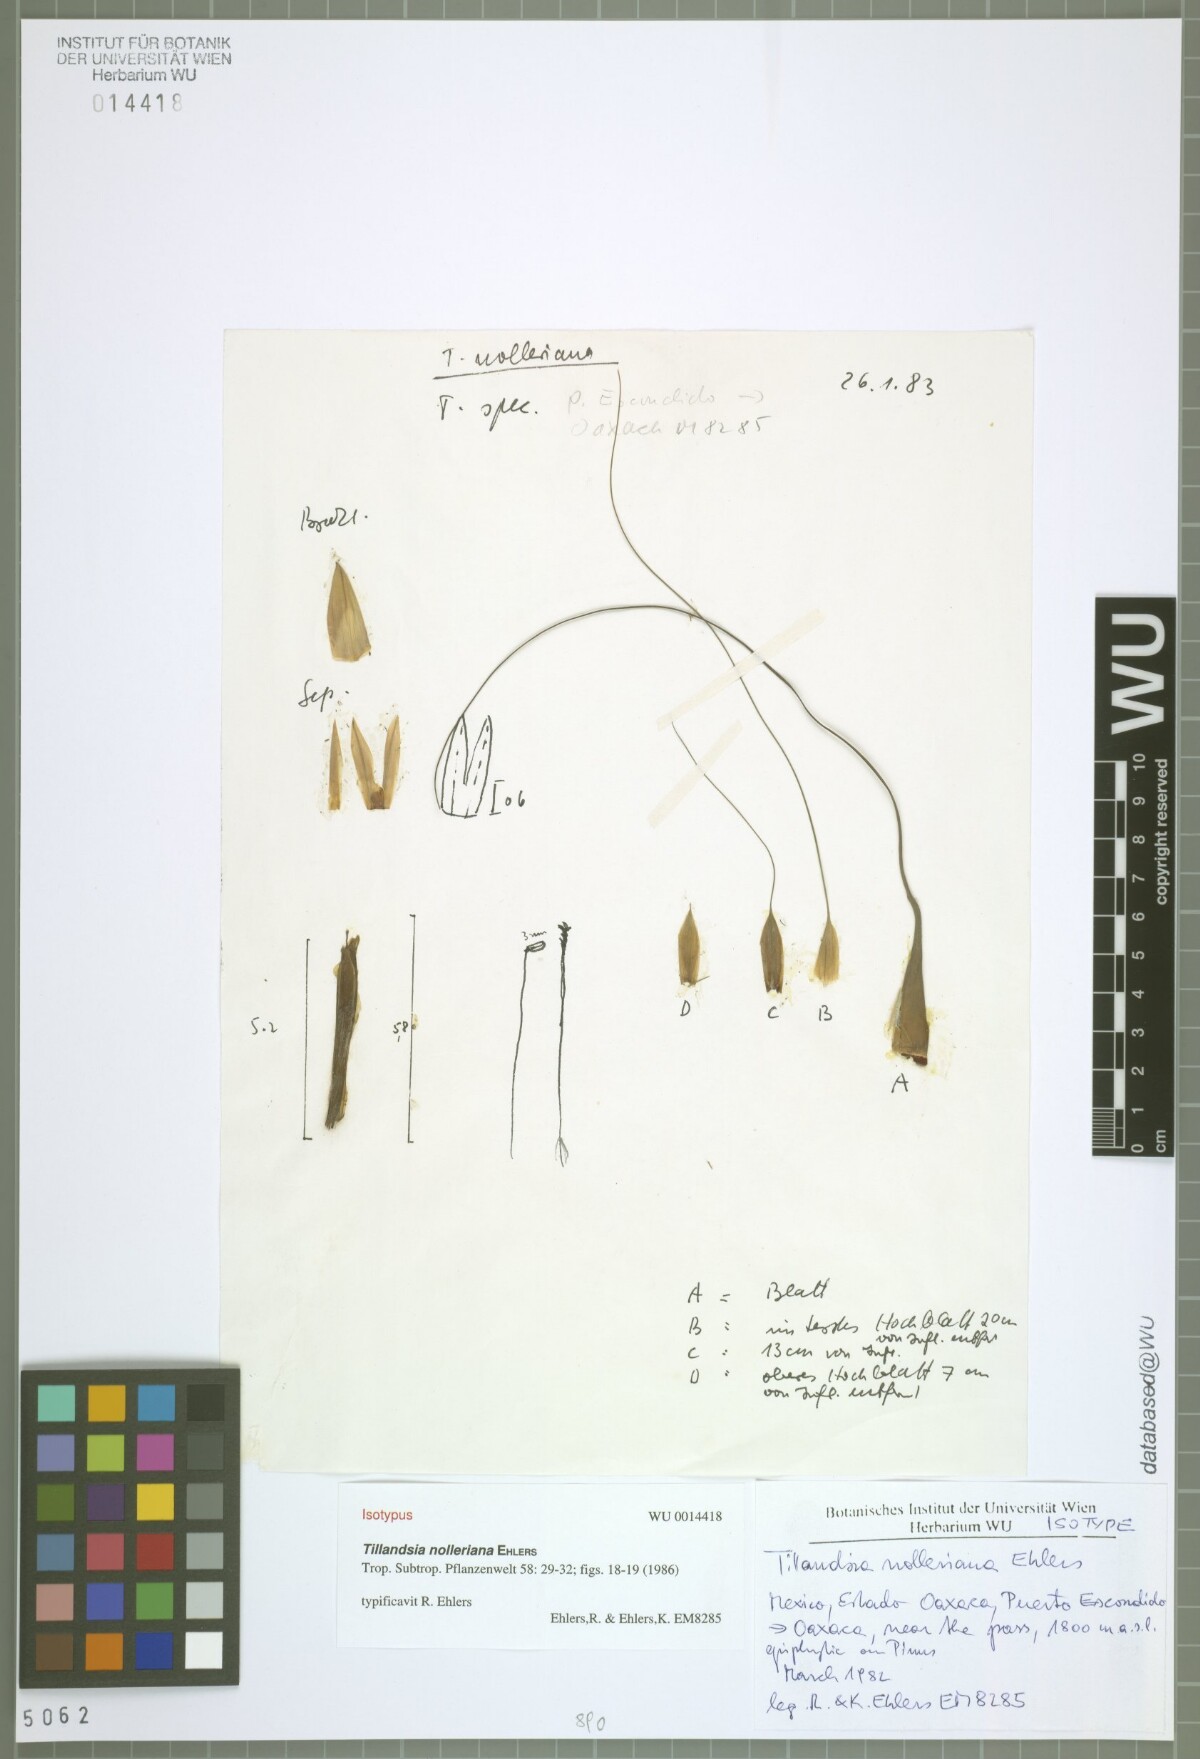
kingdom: Plantae
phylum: Tracheophyta
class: Liliopsida
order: Poales
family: Bromeliaceae
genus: Tillandsia
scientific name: Tillandsia nolleriana
